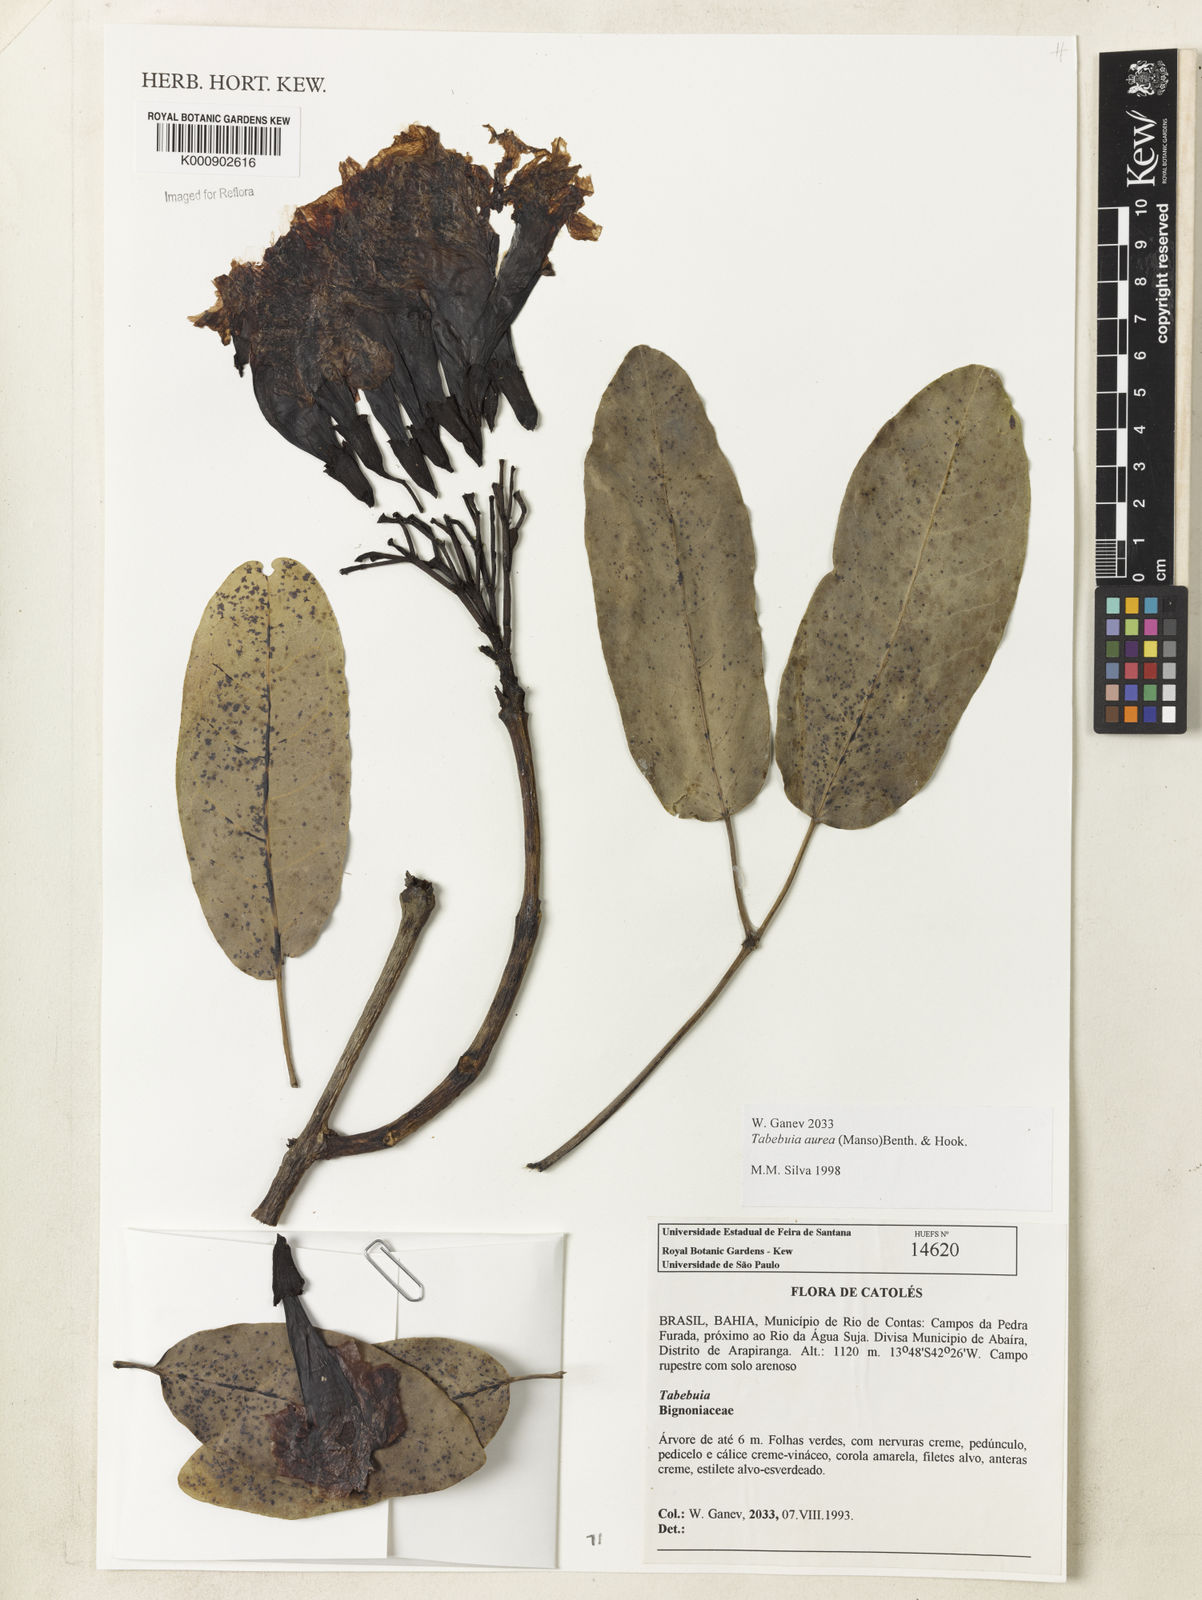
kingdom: Plantae
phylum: Tracheophyta
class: Magnoliopsida
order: Lamiales
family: Bignoniaceae
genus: Tabebuia
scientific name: Tabebuia aurea
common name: Caribbean trumpet-tree
